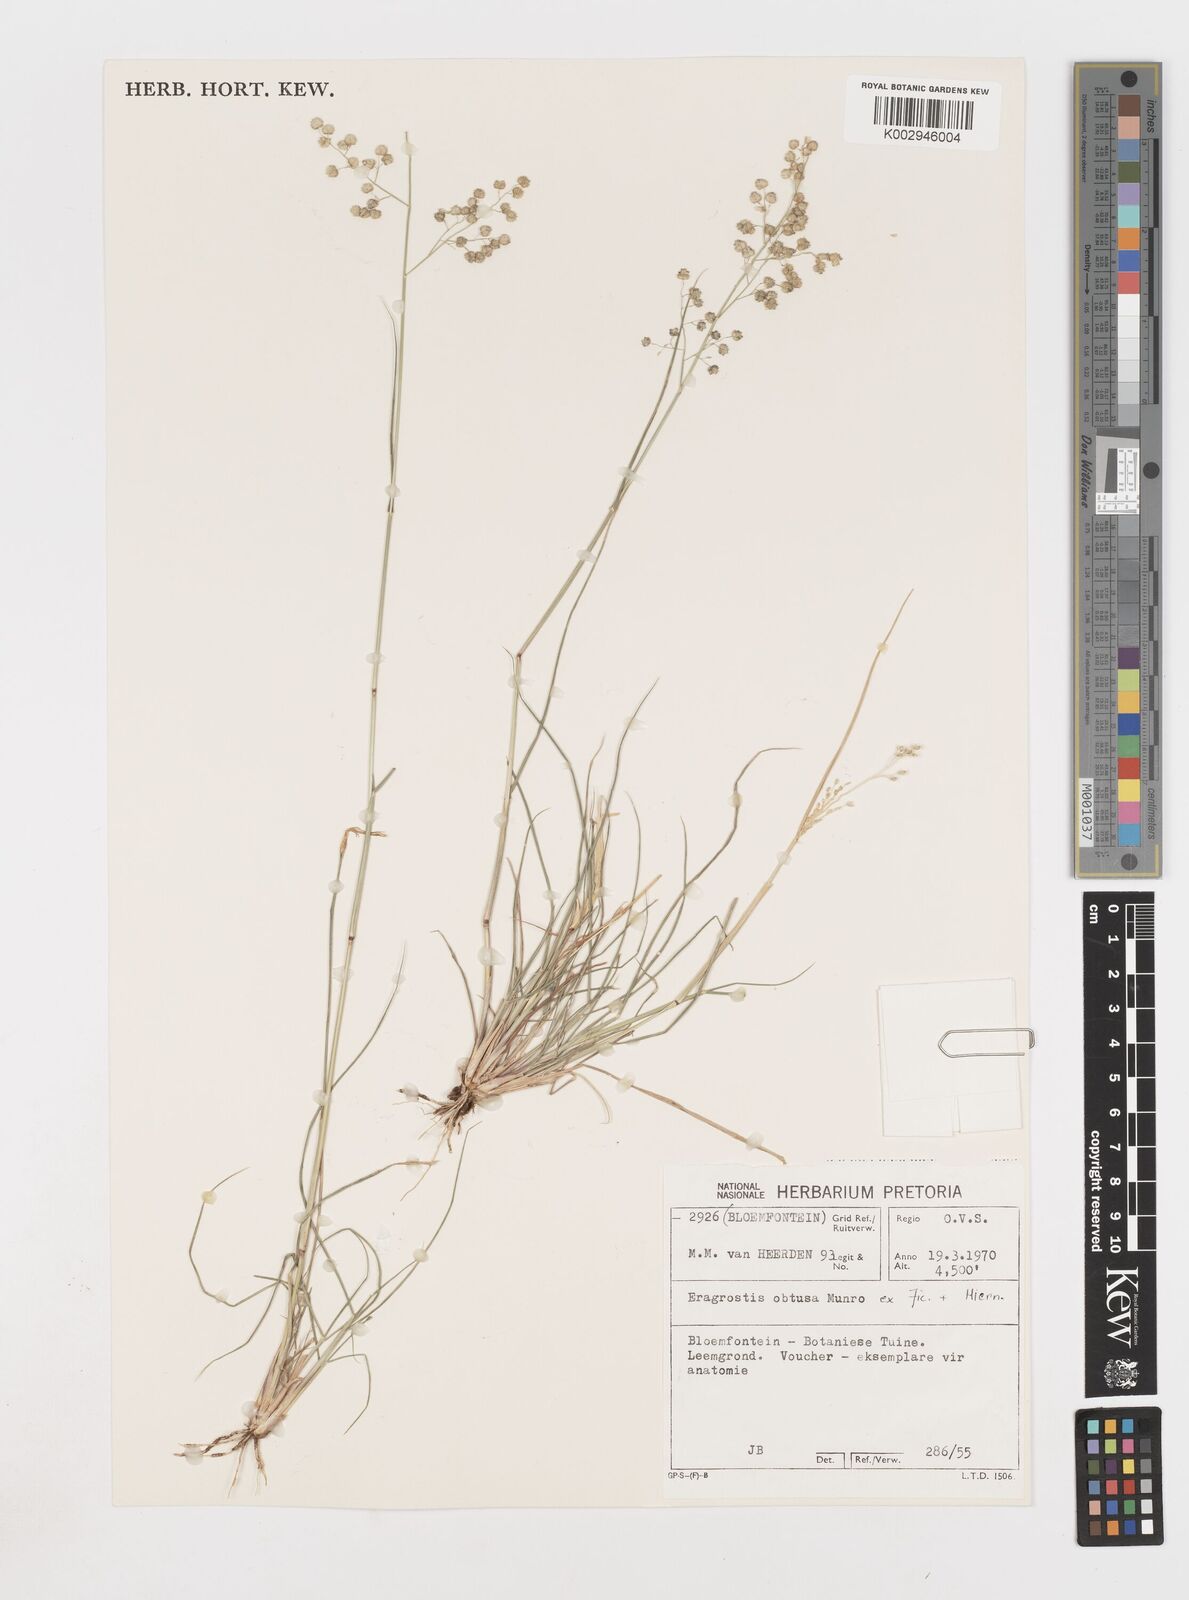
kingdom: Plantae
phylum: Tracheophyta
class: Liliopsida
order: Poales
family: Poaceae
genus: Eragrostis
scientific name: Eragrostis obtusa
